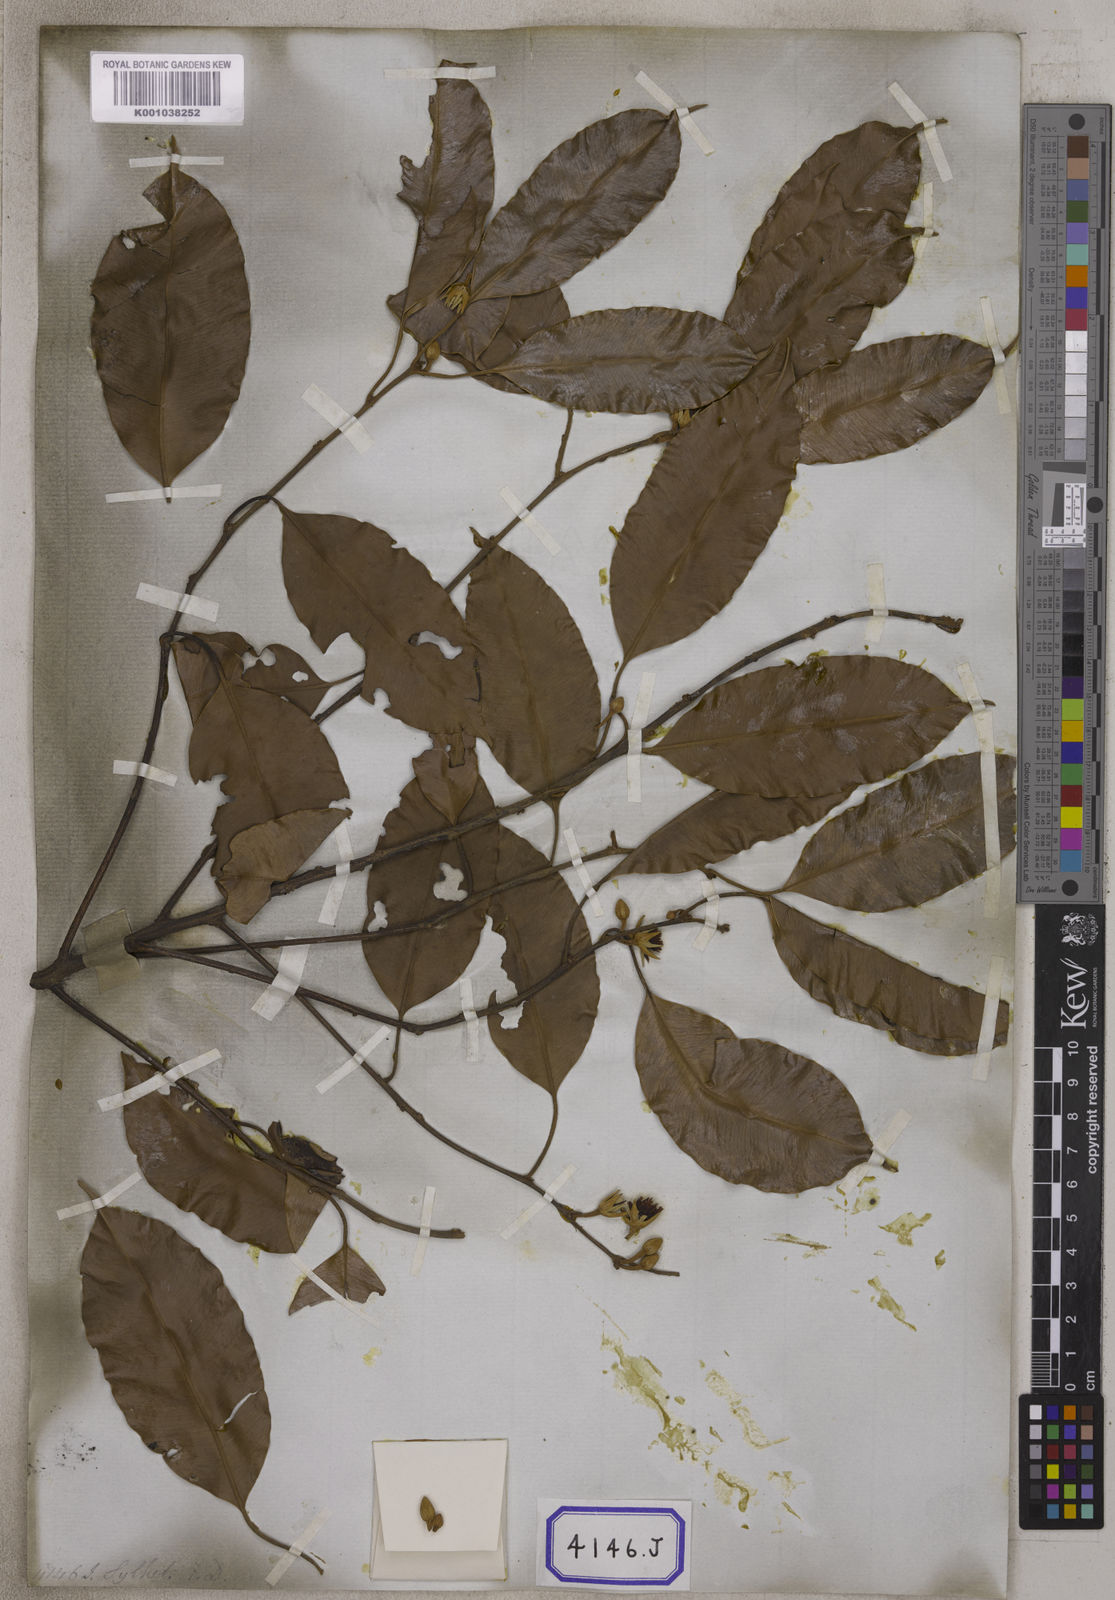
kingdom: Plantae
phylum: Tracheophyta
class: Magnoliopsida
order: Ericales
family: Sapotaceae
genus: Mimusops
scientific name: Mimusops
